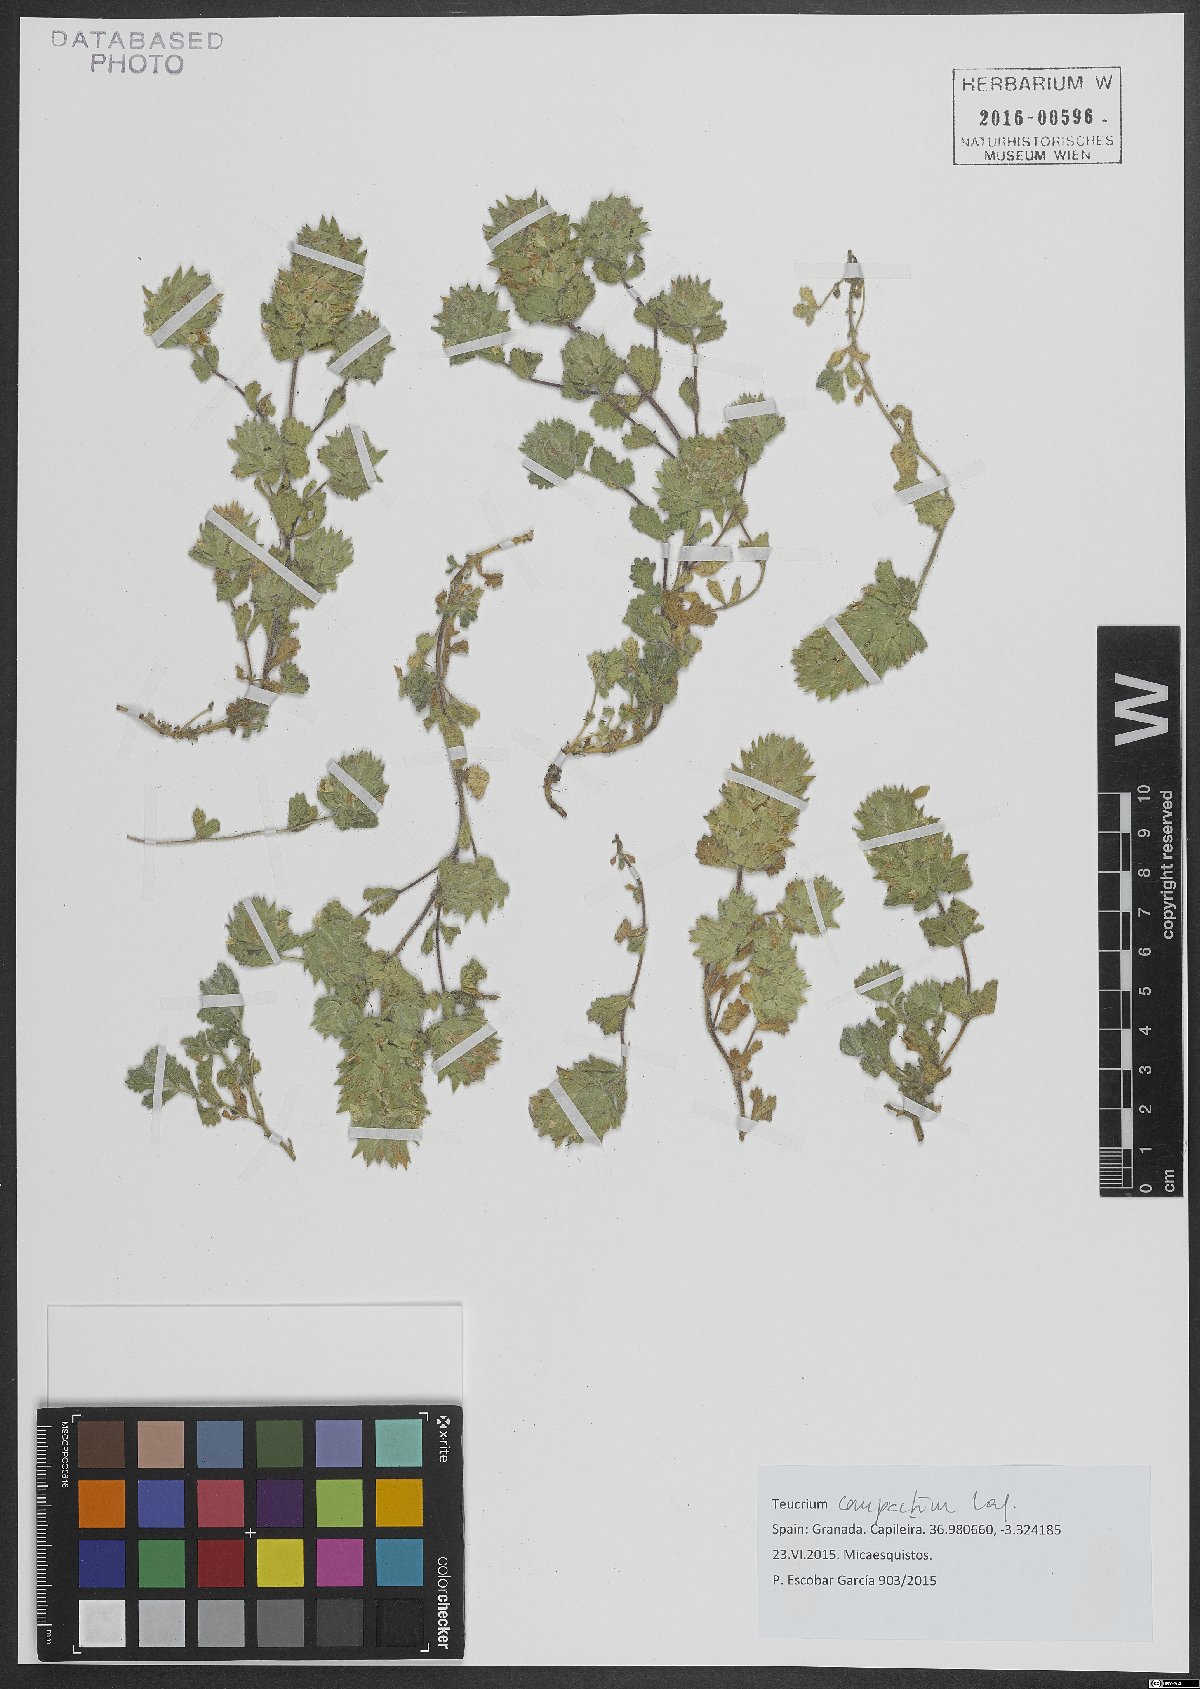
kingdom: Plantae
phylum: Tracheophyta
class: Magnoliopsida
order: Lamiales
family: Lamiaceae
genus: Teucrium
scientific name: Teucrium compactum
